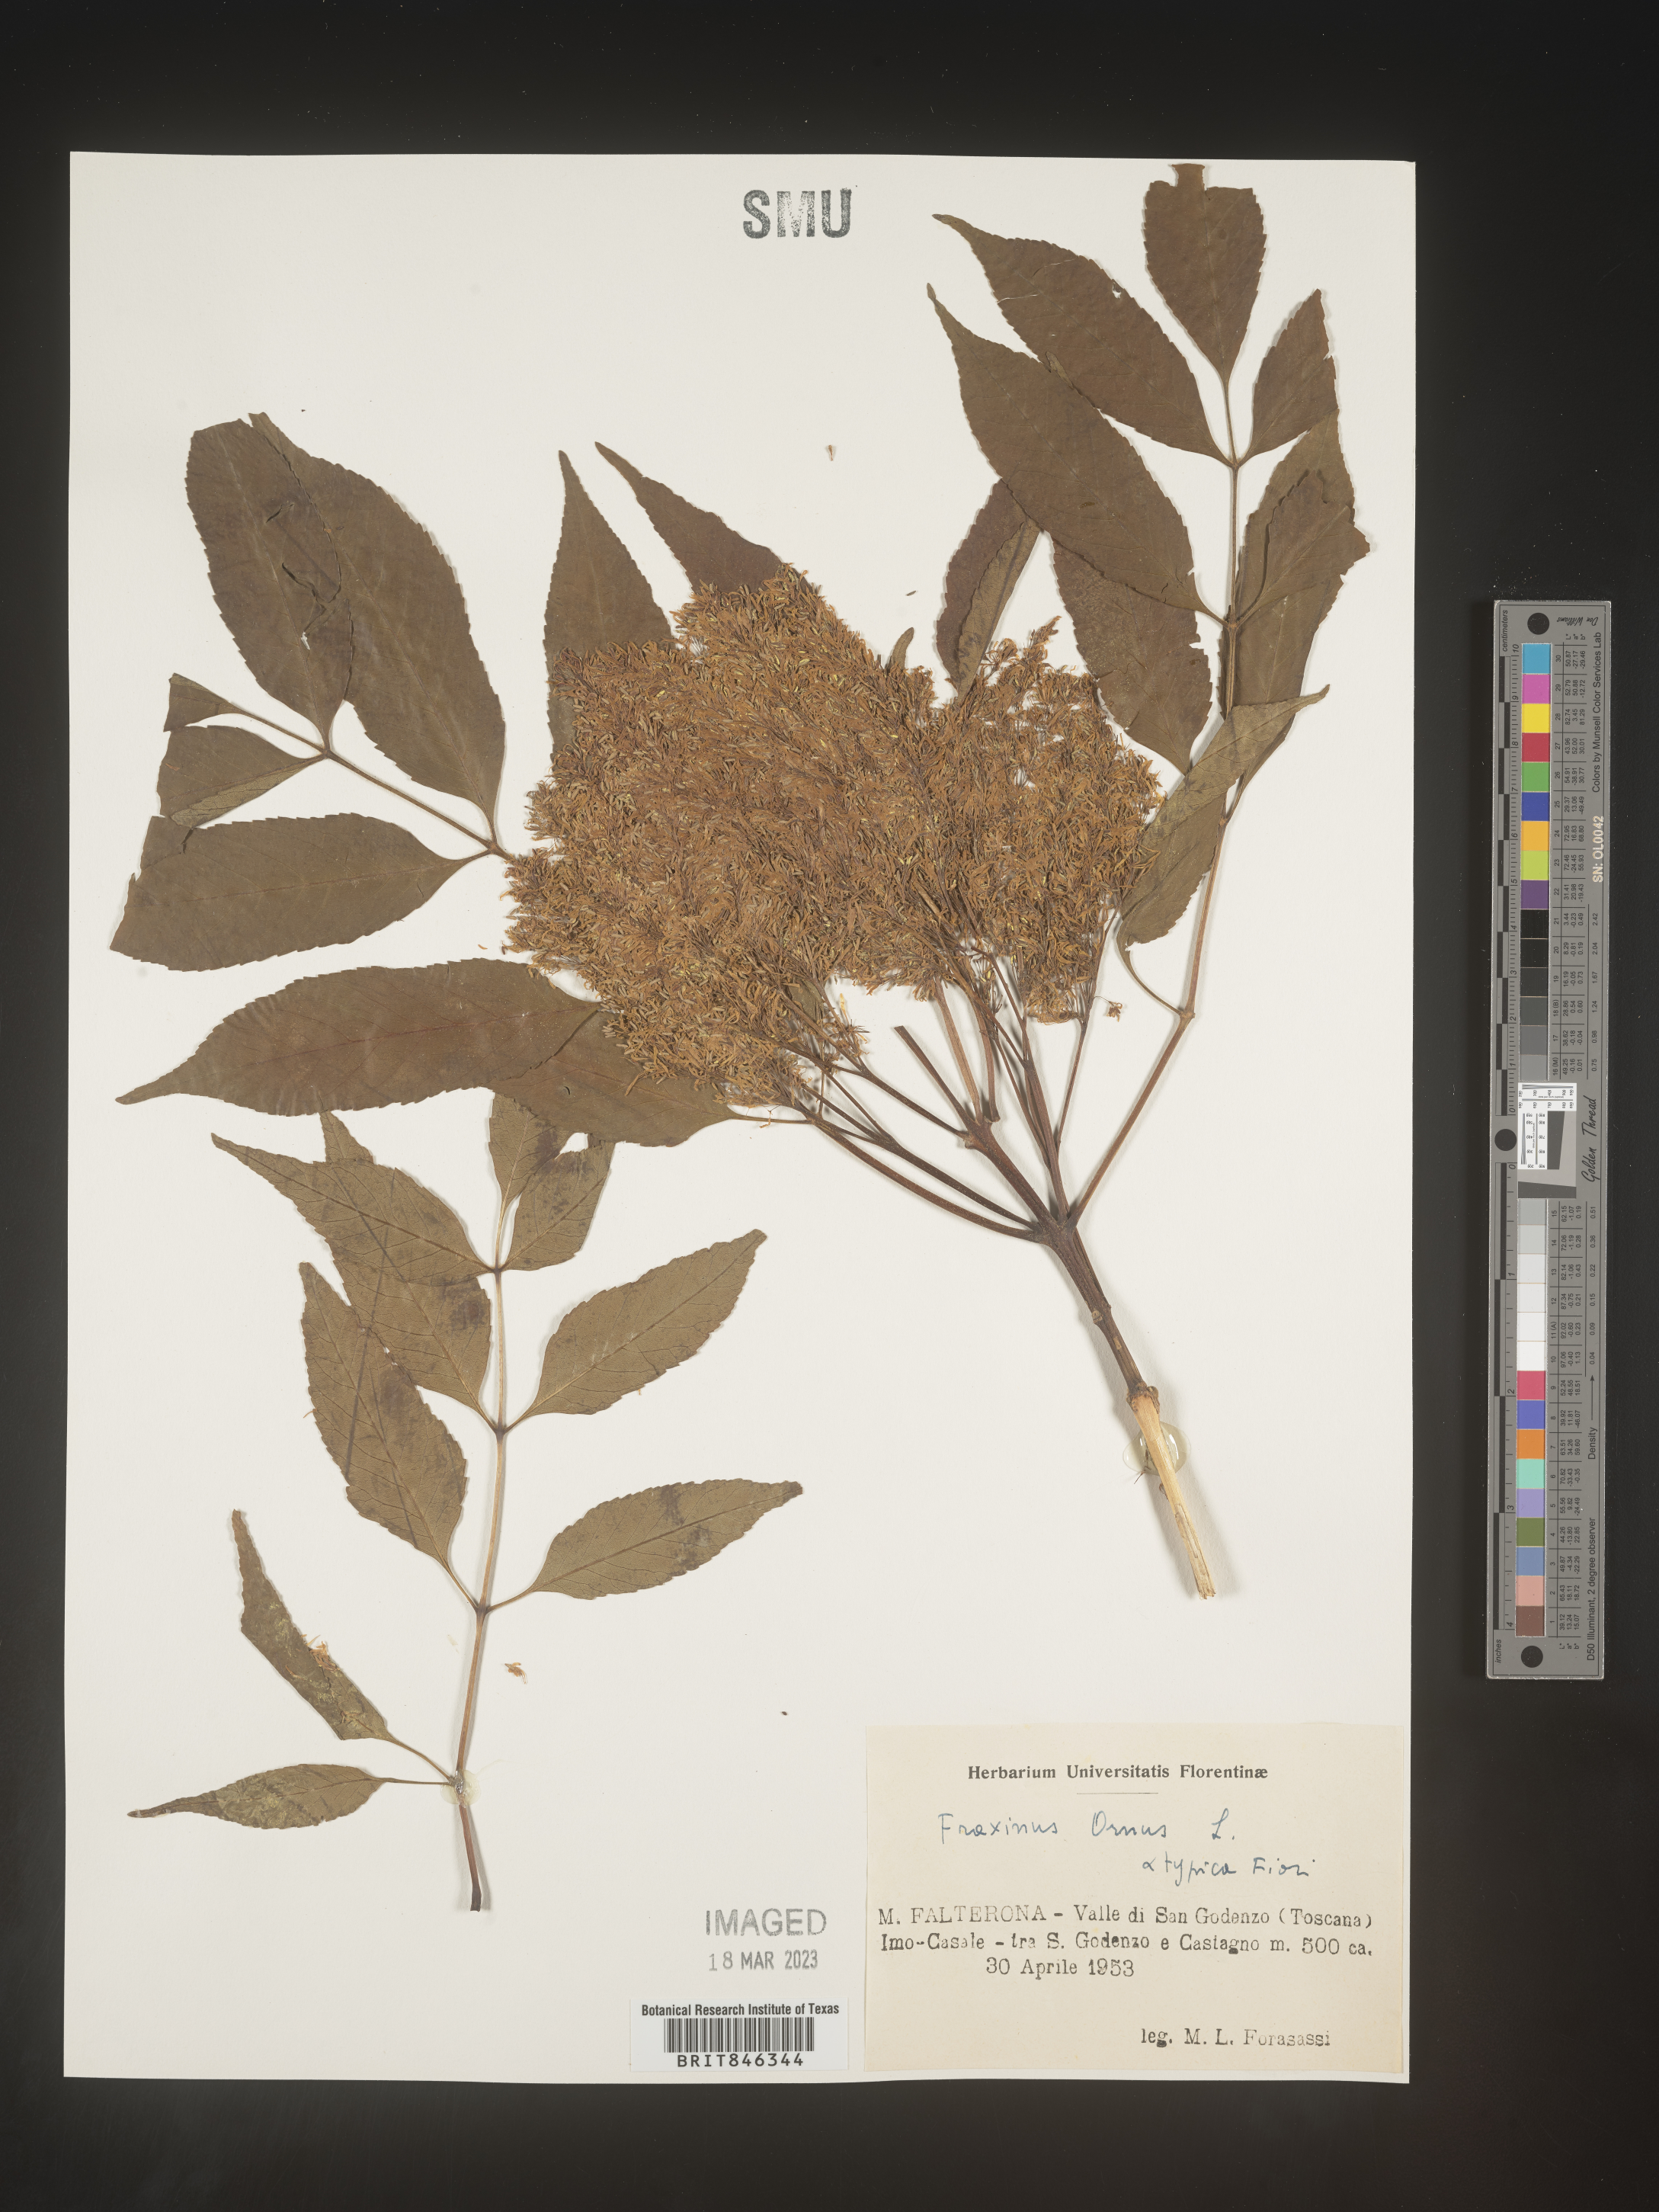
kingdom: Plantae
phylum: Tracheophyta
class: Magnoliopsida
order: Lamiales
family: Oleaceae
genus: Fraxinus
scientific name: Fraxinus
